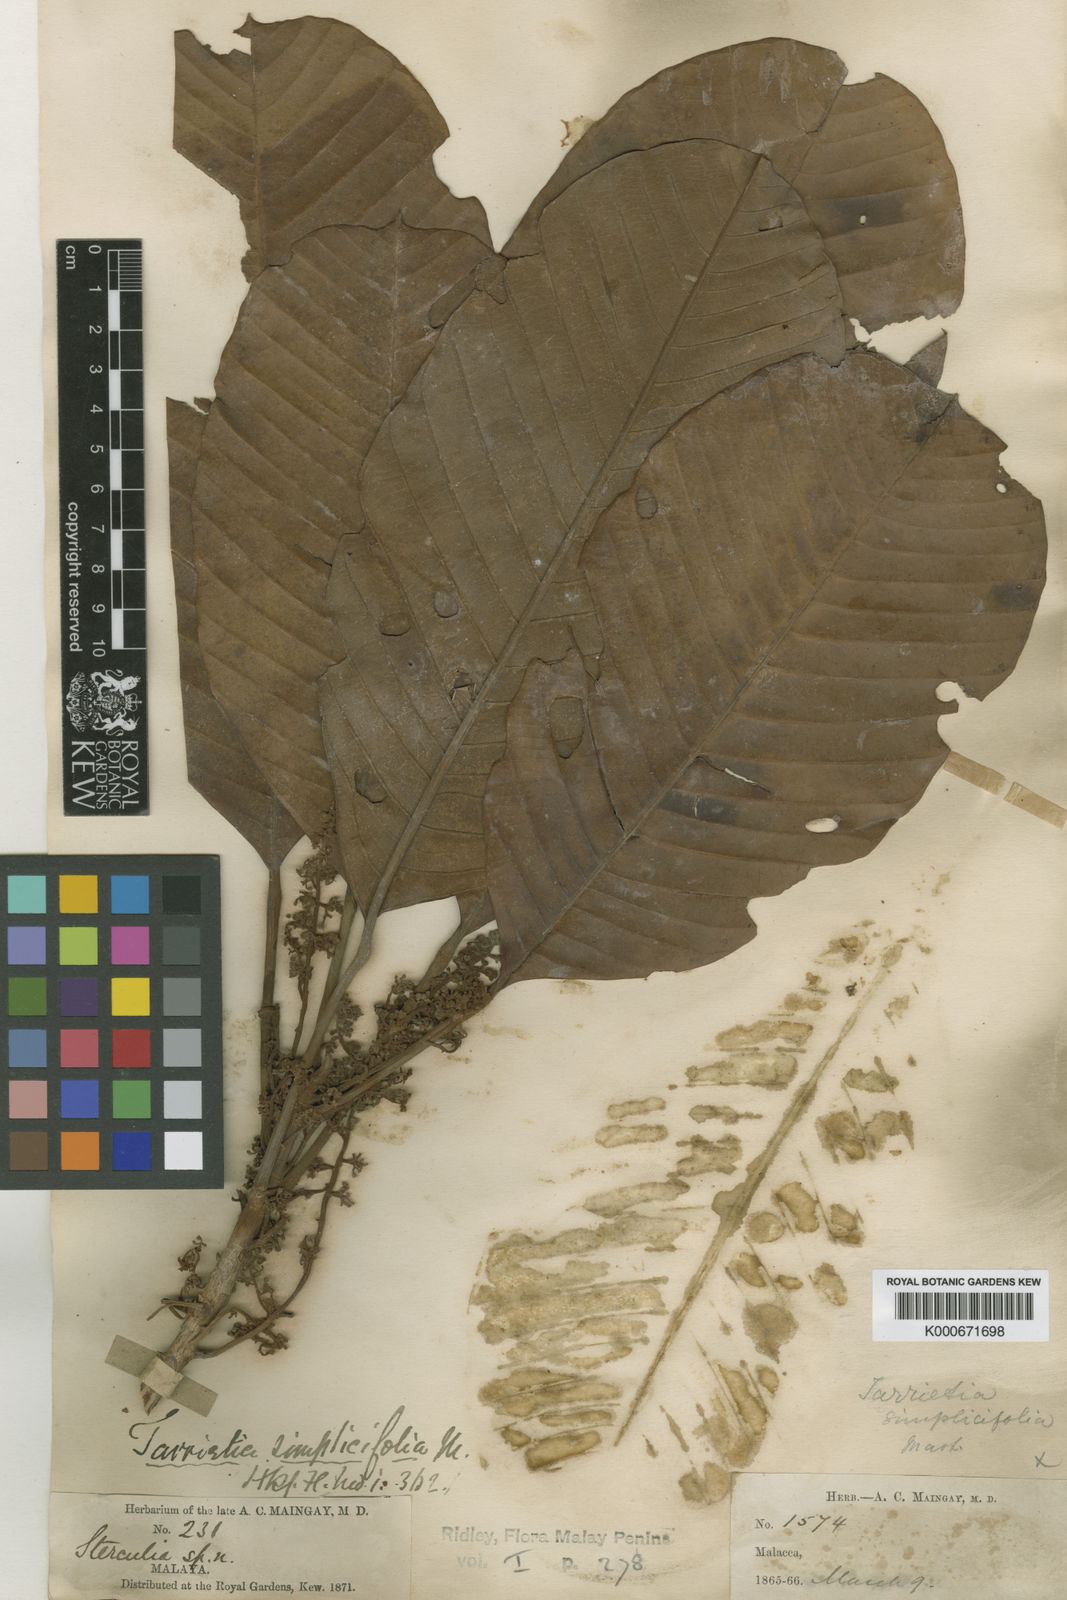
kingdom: Plantae
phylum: Tracheophyta
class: Magnoliopsida
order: Malvales
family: Malvaceae
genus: Heritiera
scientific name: Heritiera simplicifolia
